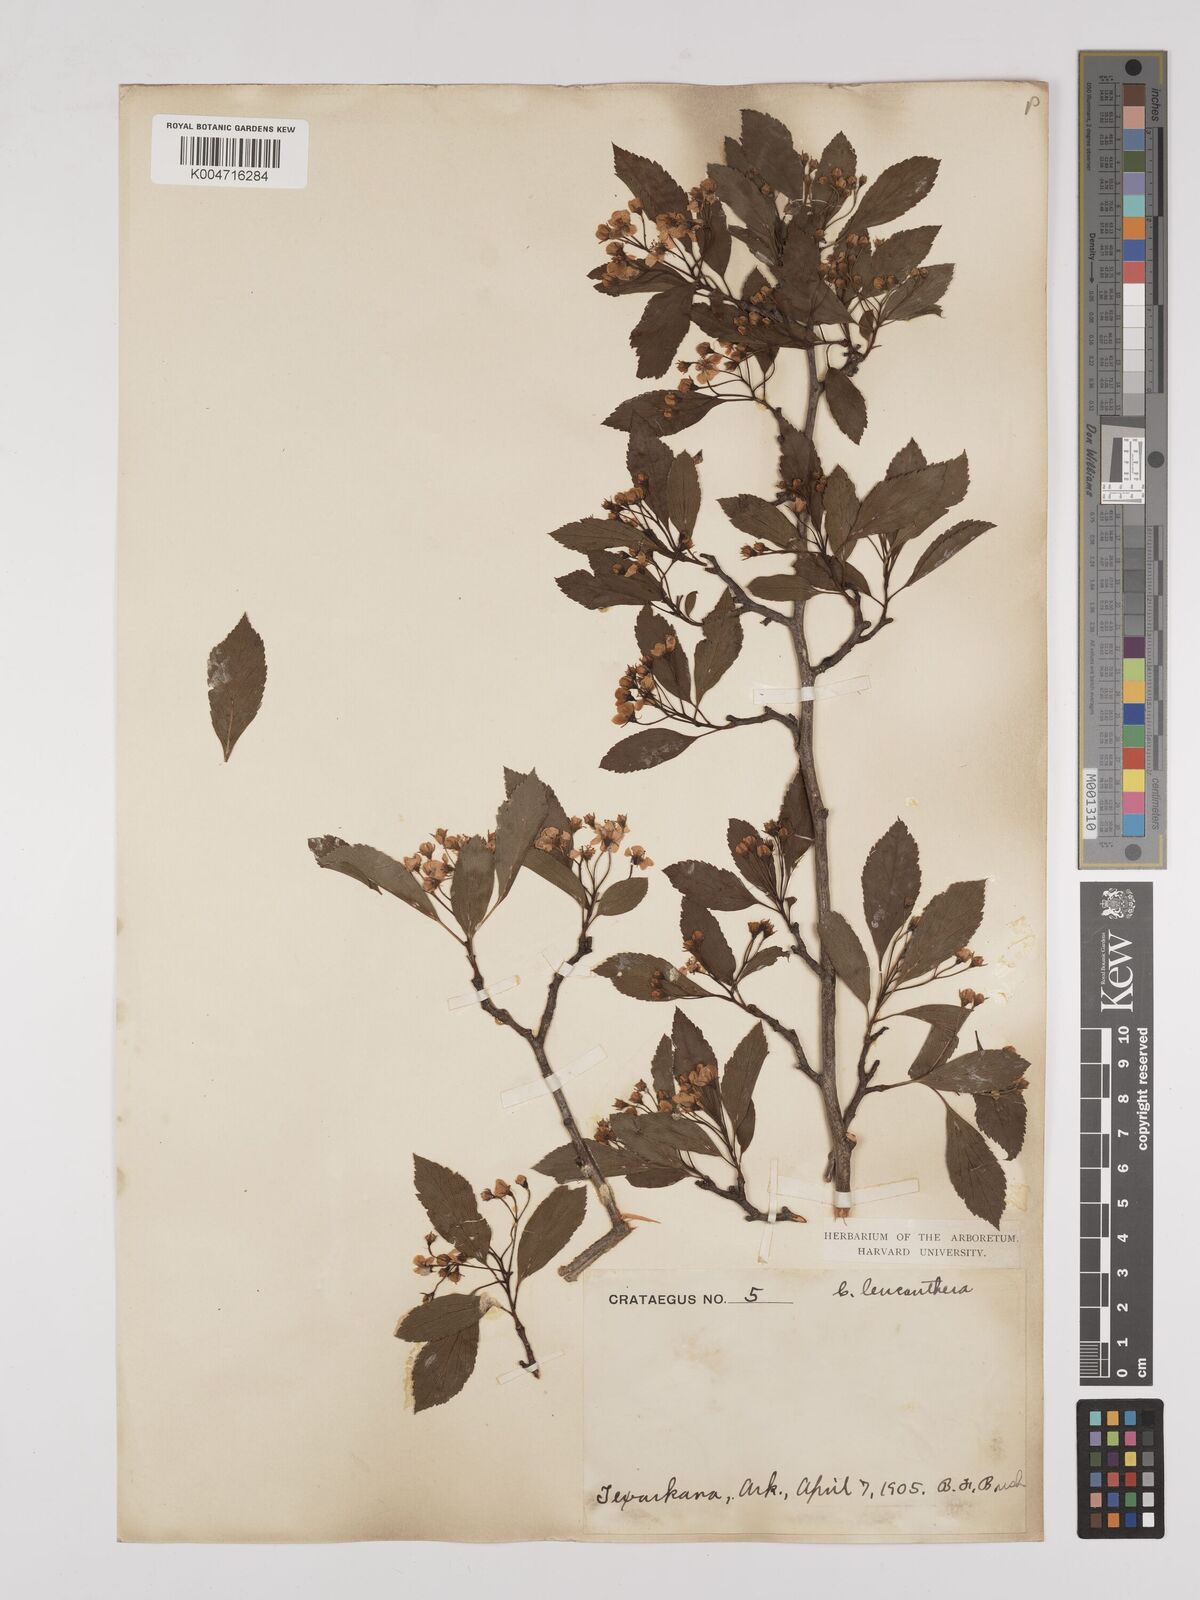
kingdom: Plantae
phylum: Tracheophyta
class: Magnoliopsida
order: Rosales
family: Rosaceae
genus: Crataegus
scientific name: Crataegus succulenta
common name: Fleshy hawthorn
